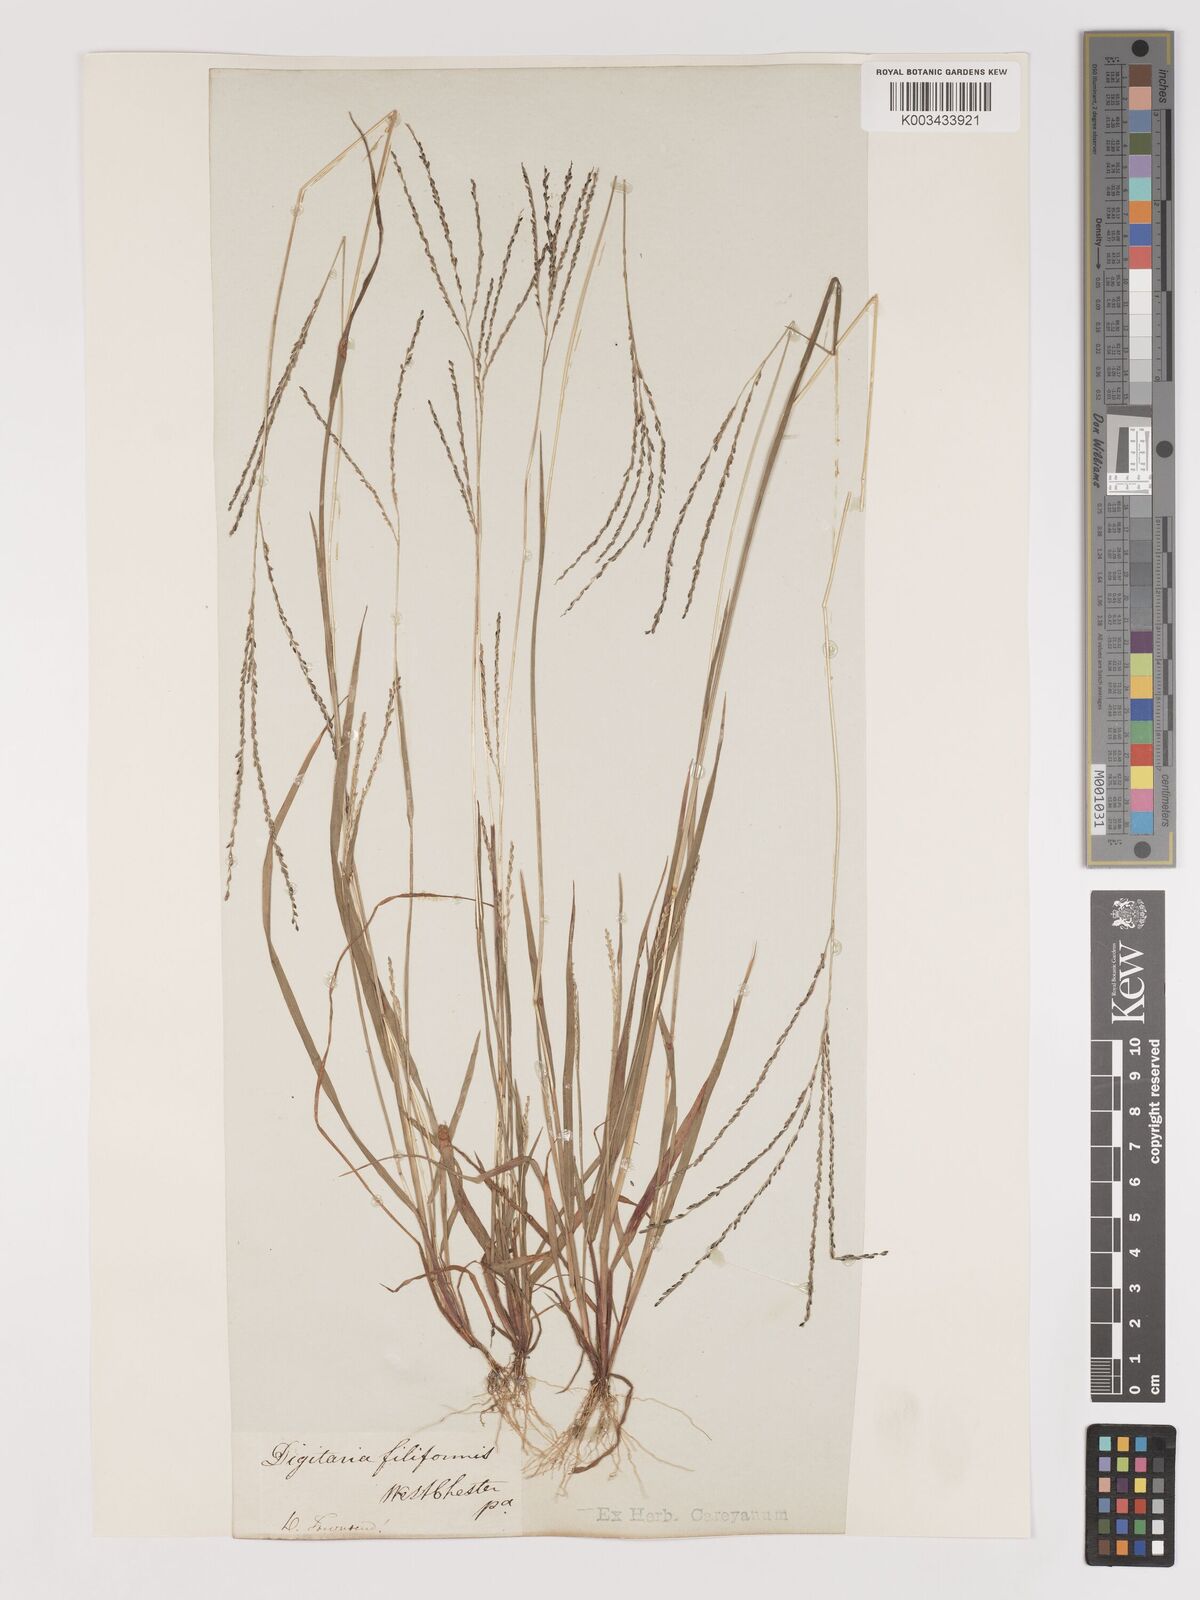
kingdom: Plantae
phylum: Tracheophyta
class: Liliopsida
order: Poales
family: Poaceae
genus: Digitaria
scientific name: Digitaria filiformis
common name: Slender crabgrass
